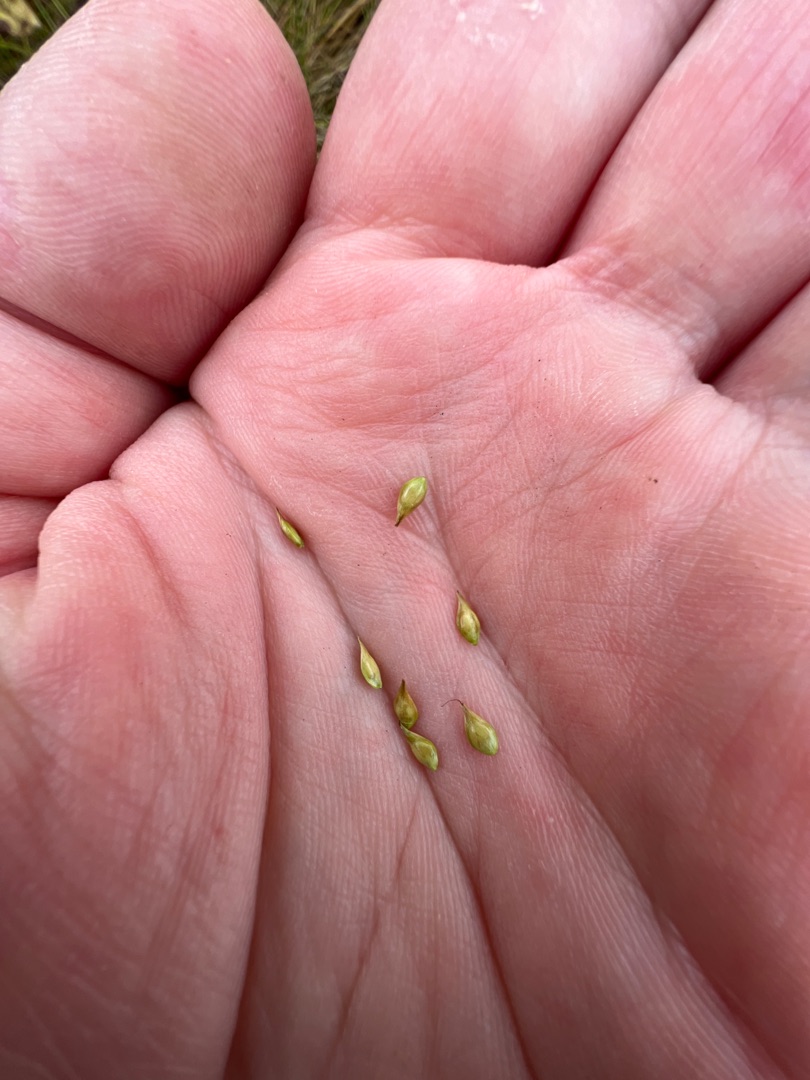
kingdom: Plantae
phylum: Tracheophyta
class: Liliopsida
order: Poales
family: Cyperaceae
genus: Carex
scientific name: Carex leersii
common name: Mellembrudt star (underart)
